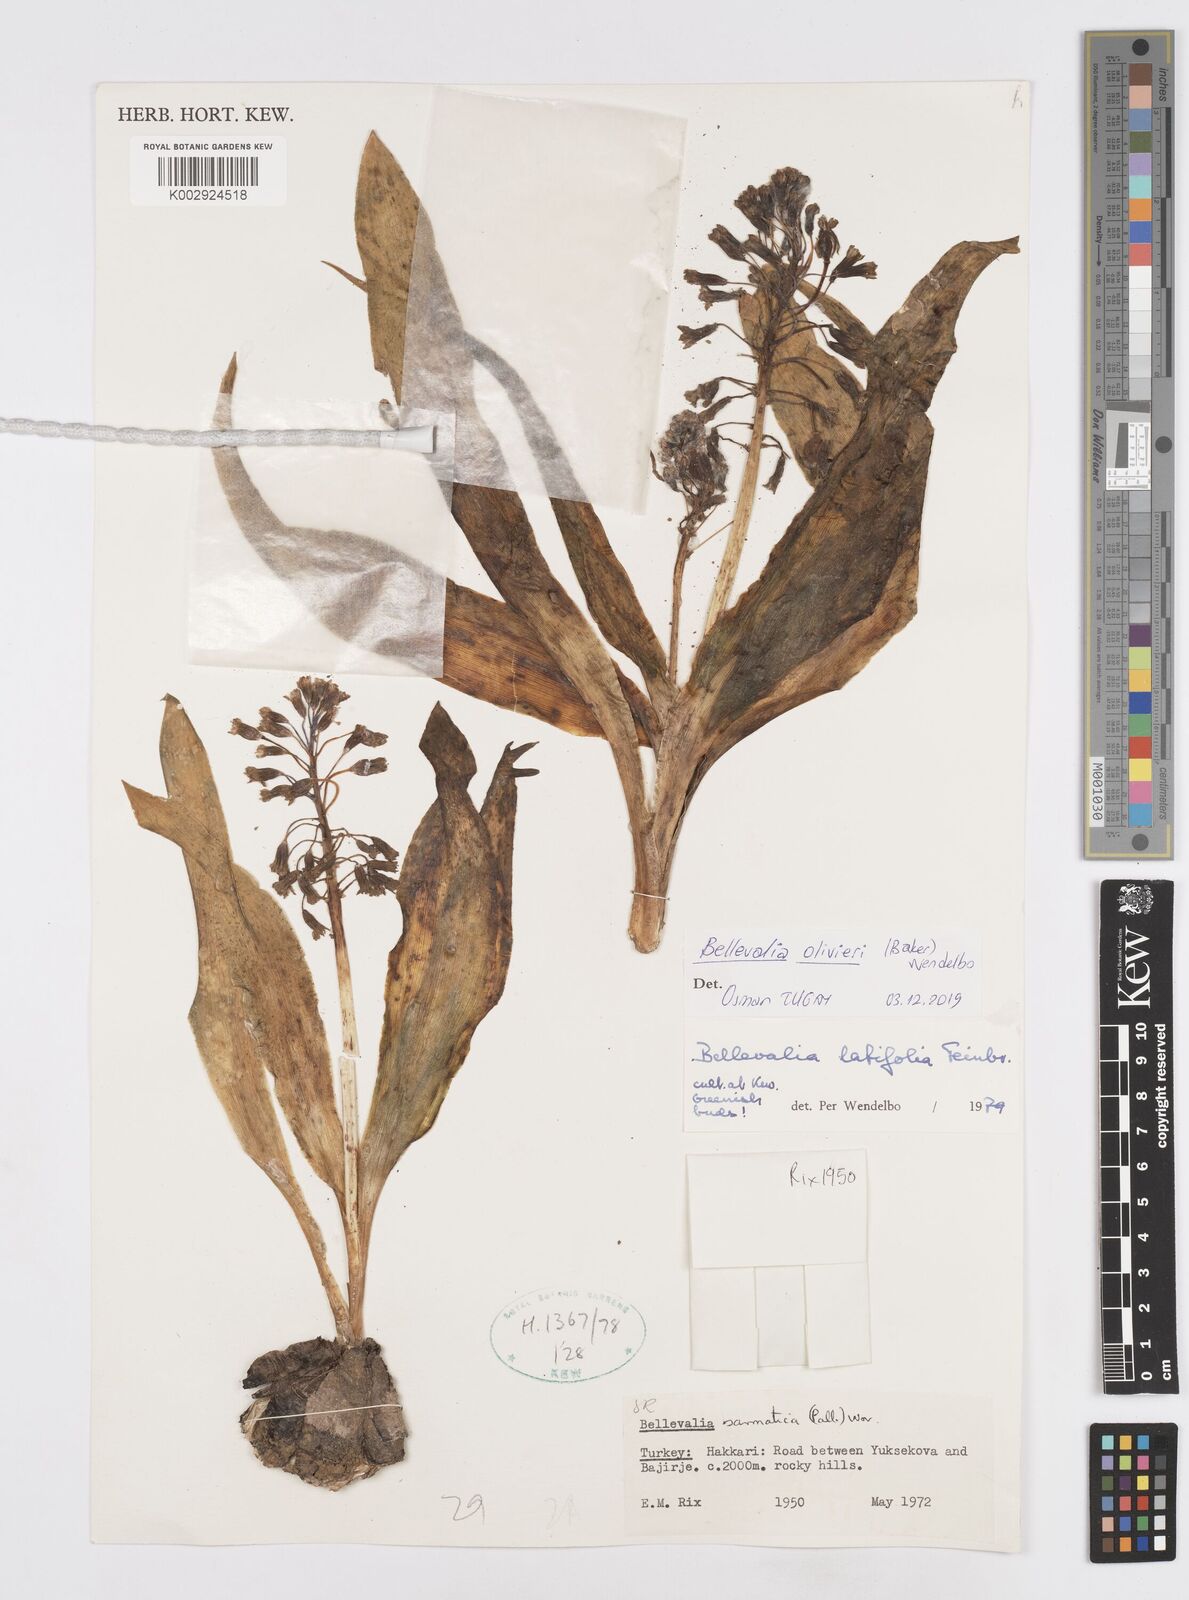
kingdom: Plantae
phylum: Tracheophyta
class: Liliopsida
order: Asparagales
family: Asparagaceae
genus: Bellevalia
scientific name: Bellevalia olivieri
